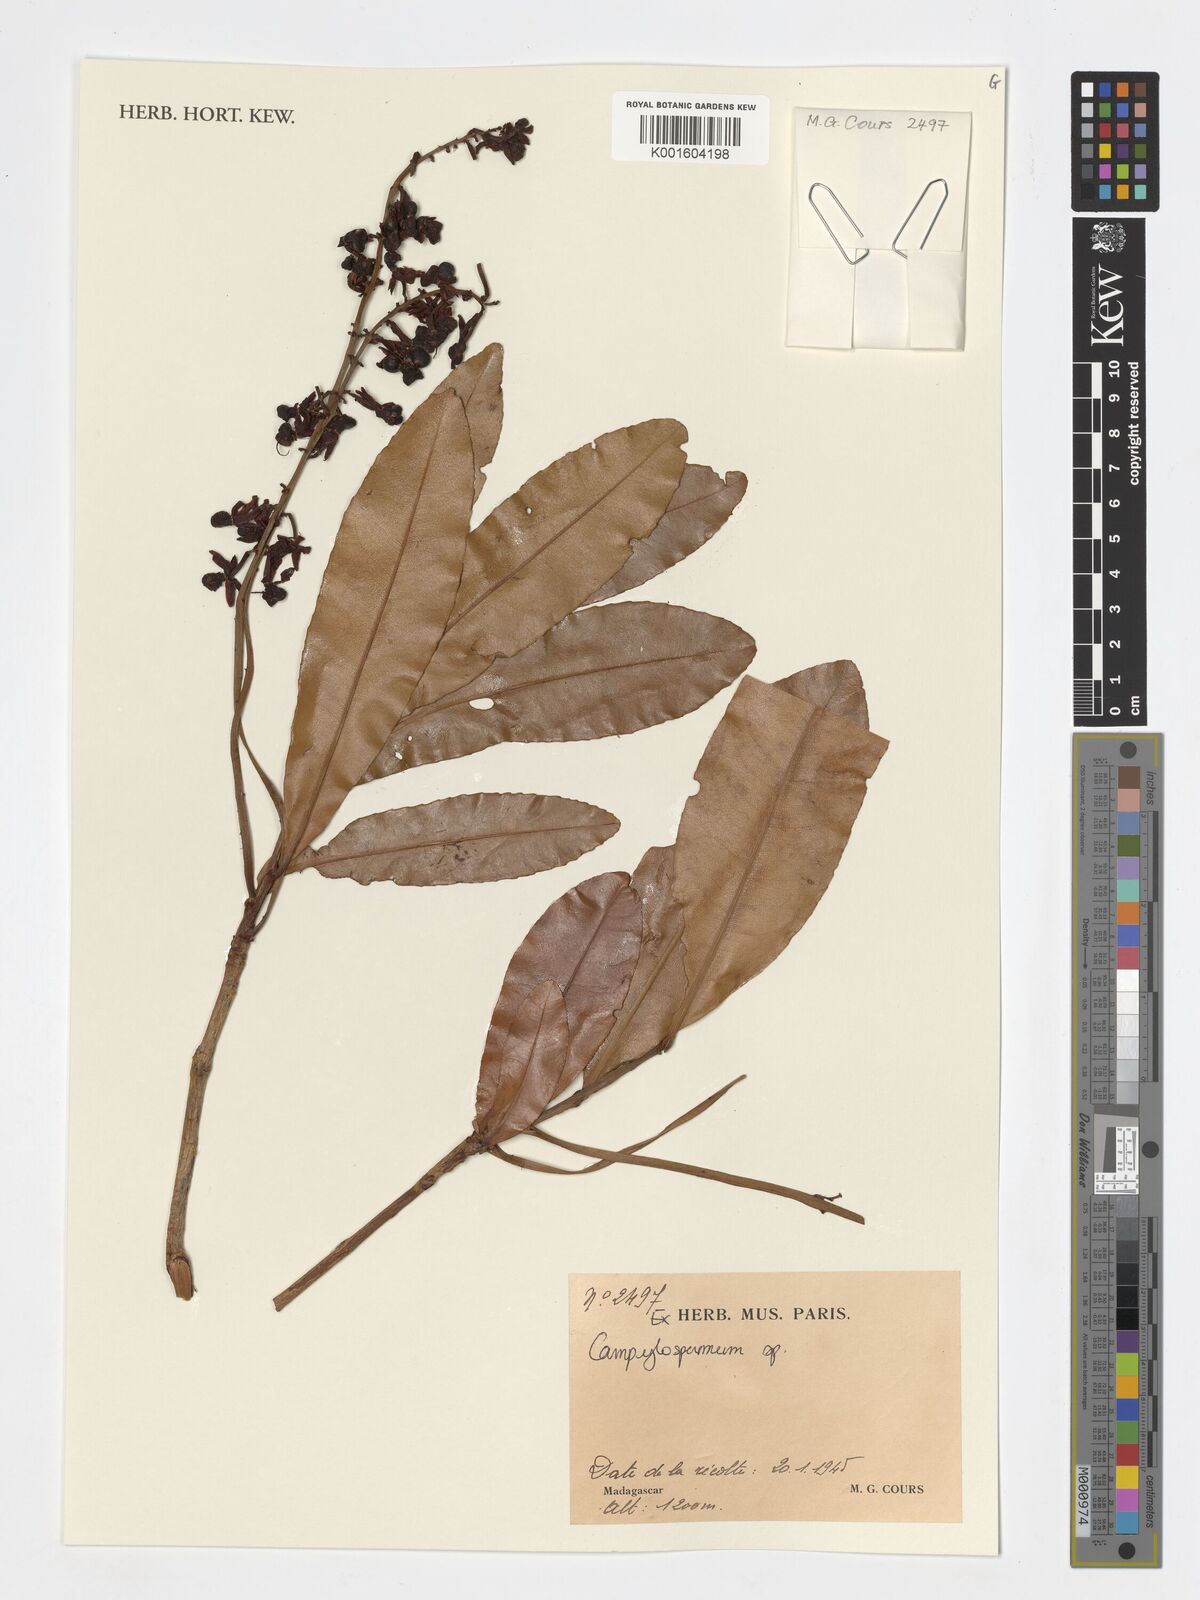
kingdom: Plantae
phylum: Tracheophyta
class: Magnoliopsida
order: Malpighiales
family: Ochnaceae
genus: Campylospermum
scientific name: Campylospermum
